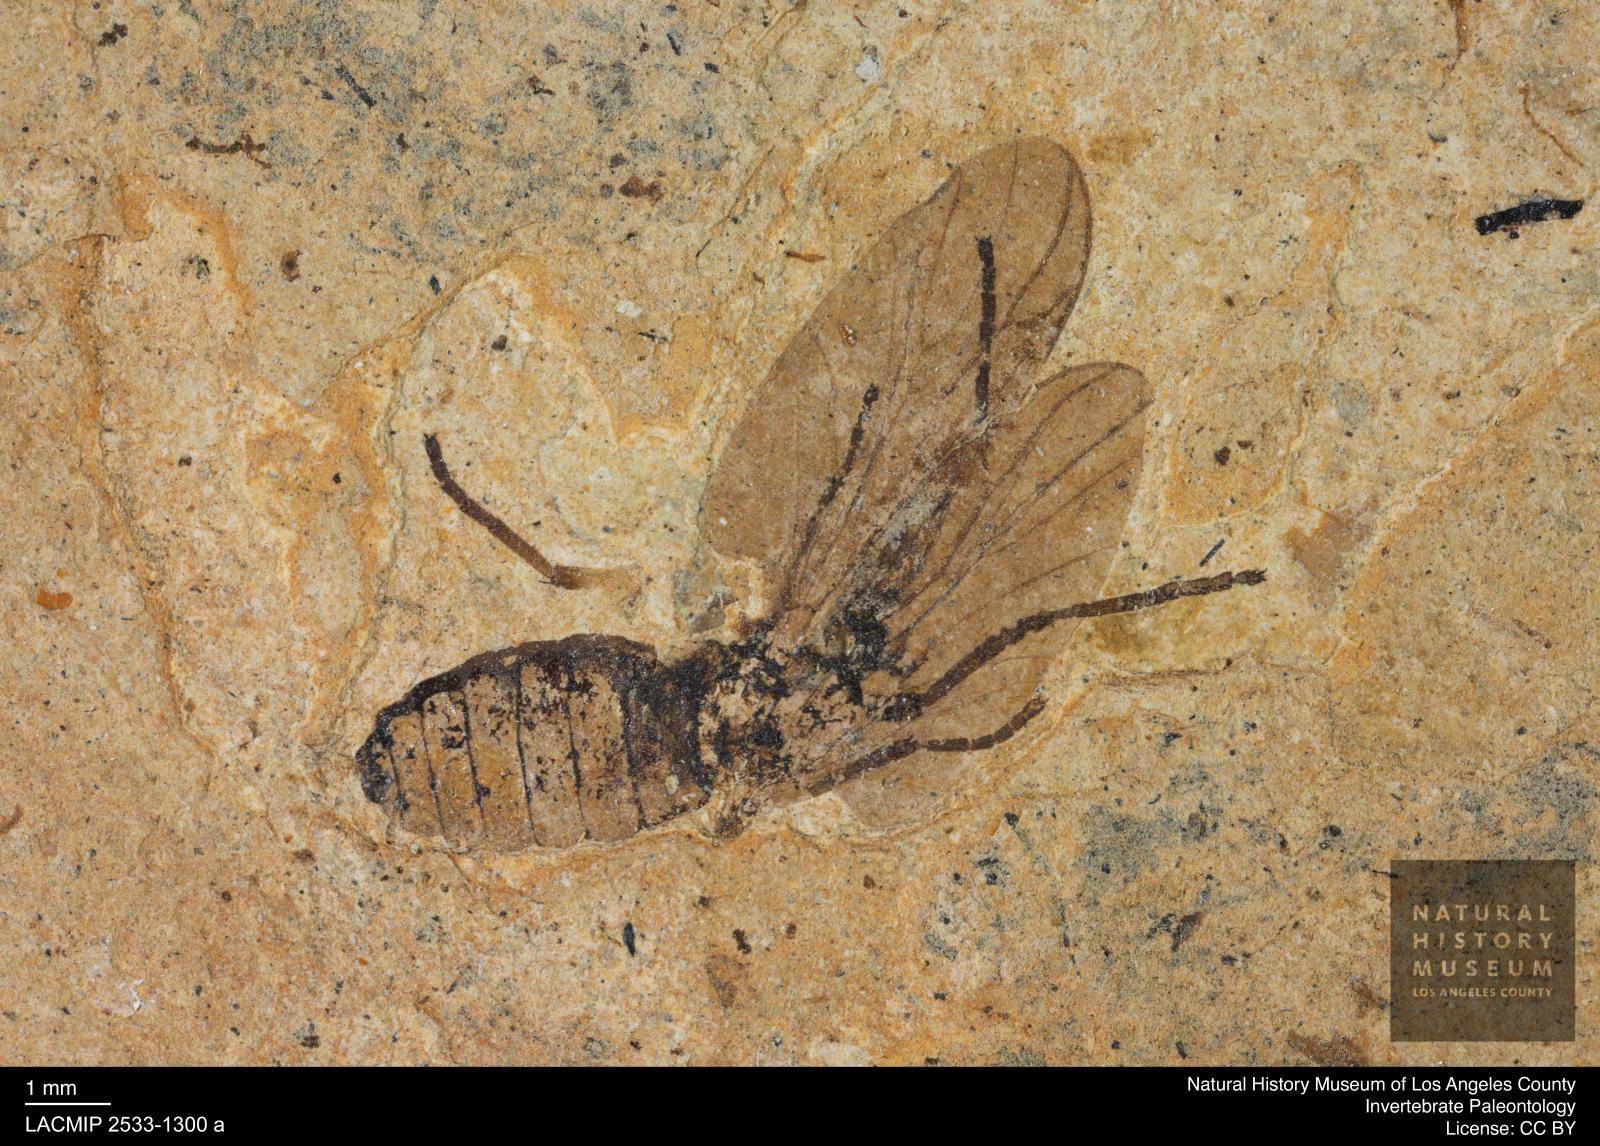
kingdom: Animalia
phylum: Arthropoda
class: Insecta
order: Diptera
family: Bibionidae
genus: Plecia
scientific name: Plecia stygia
